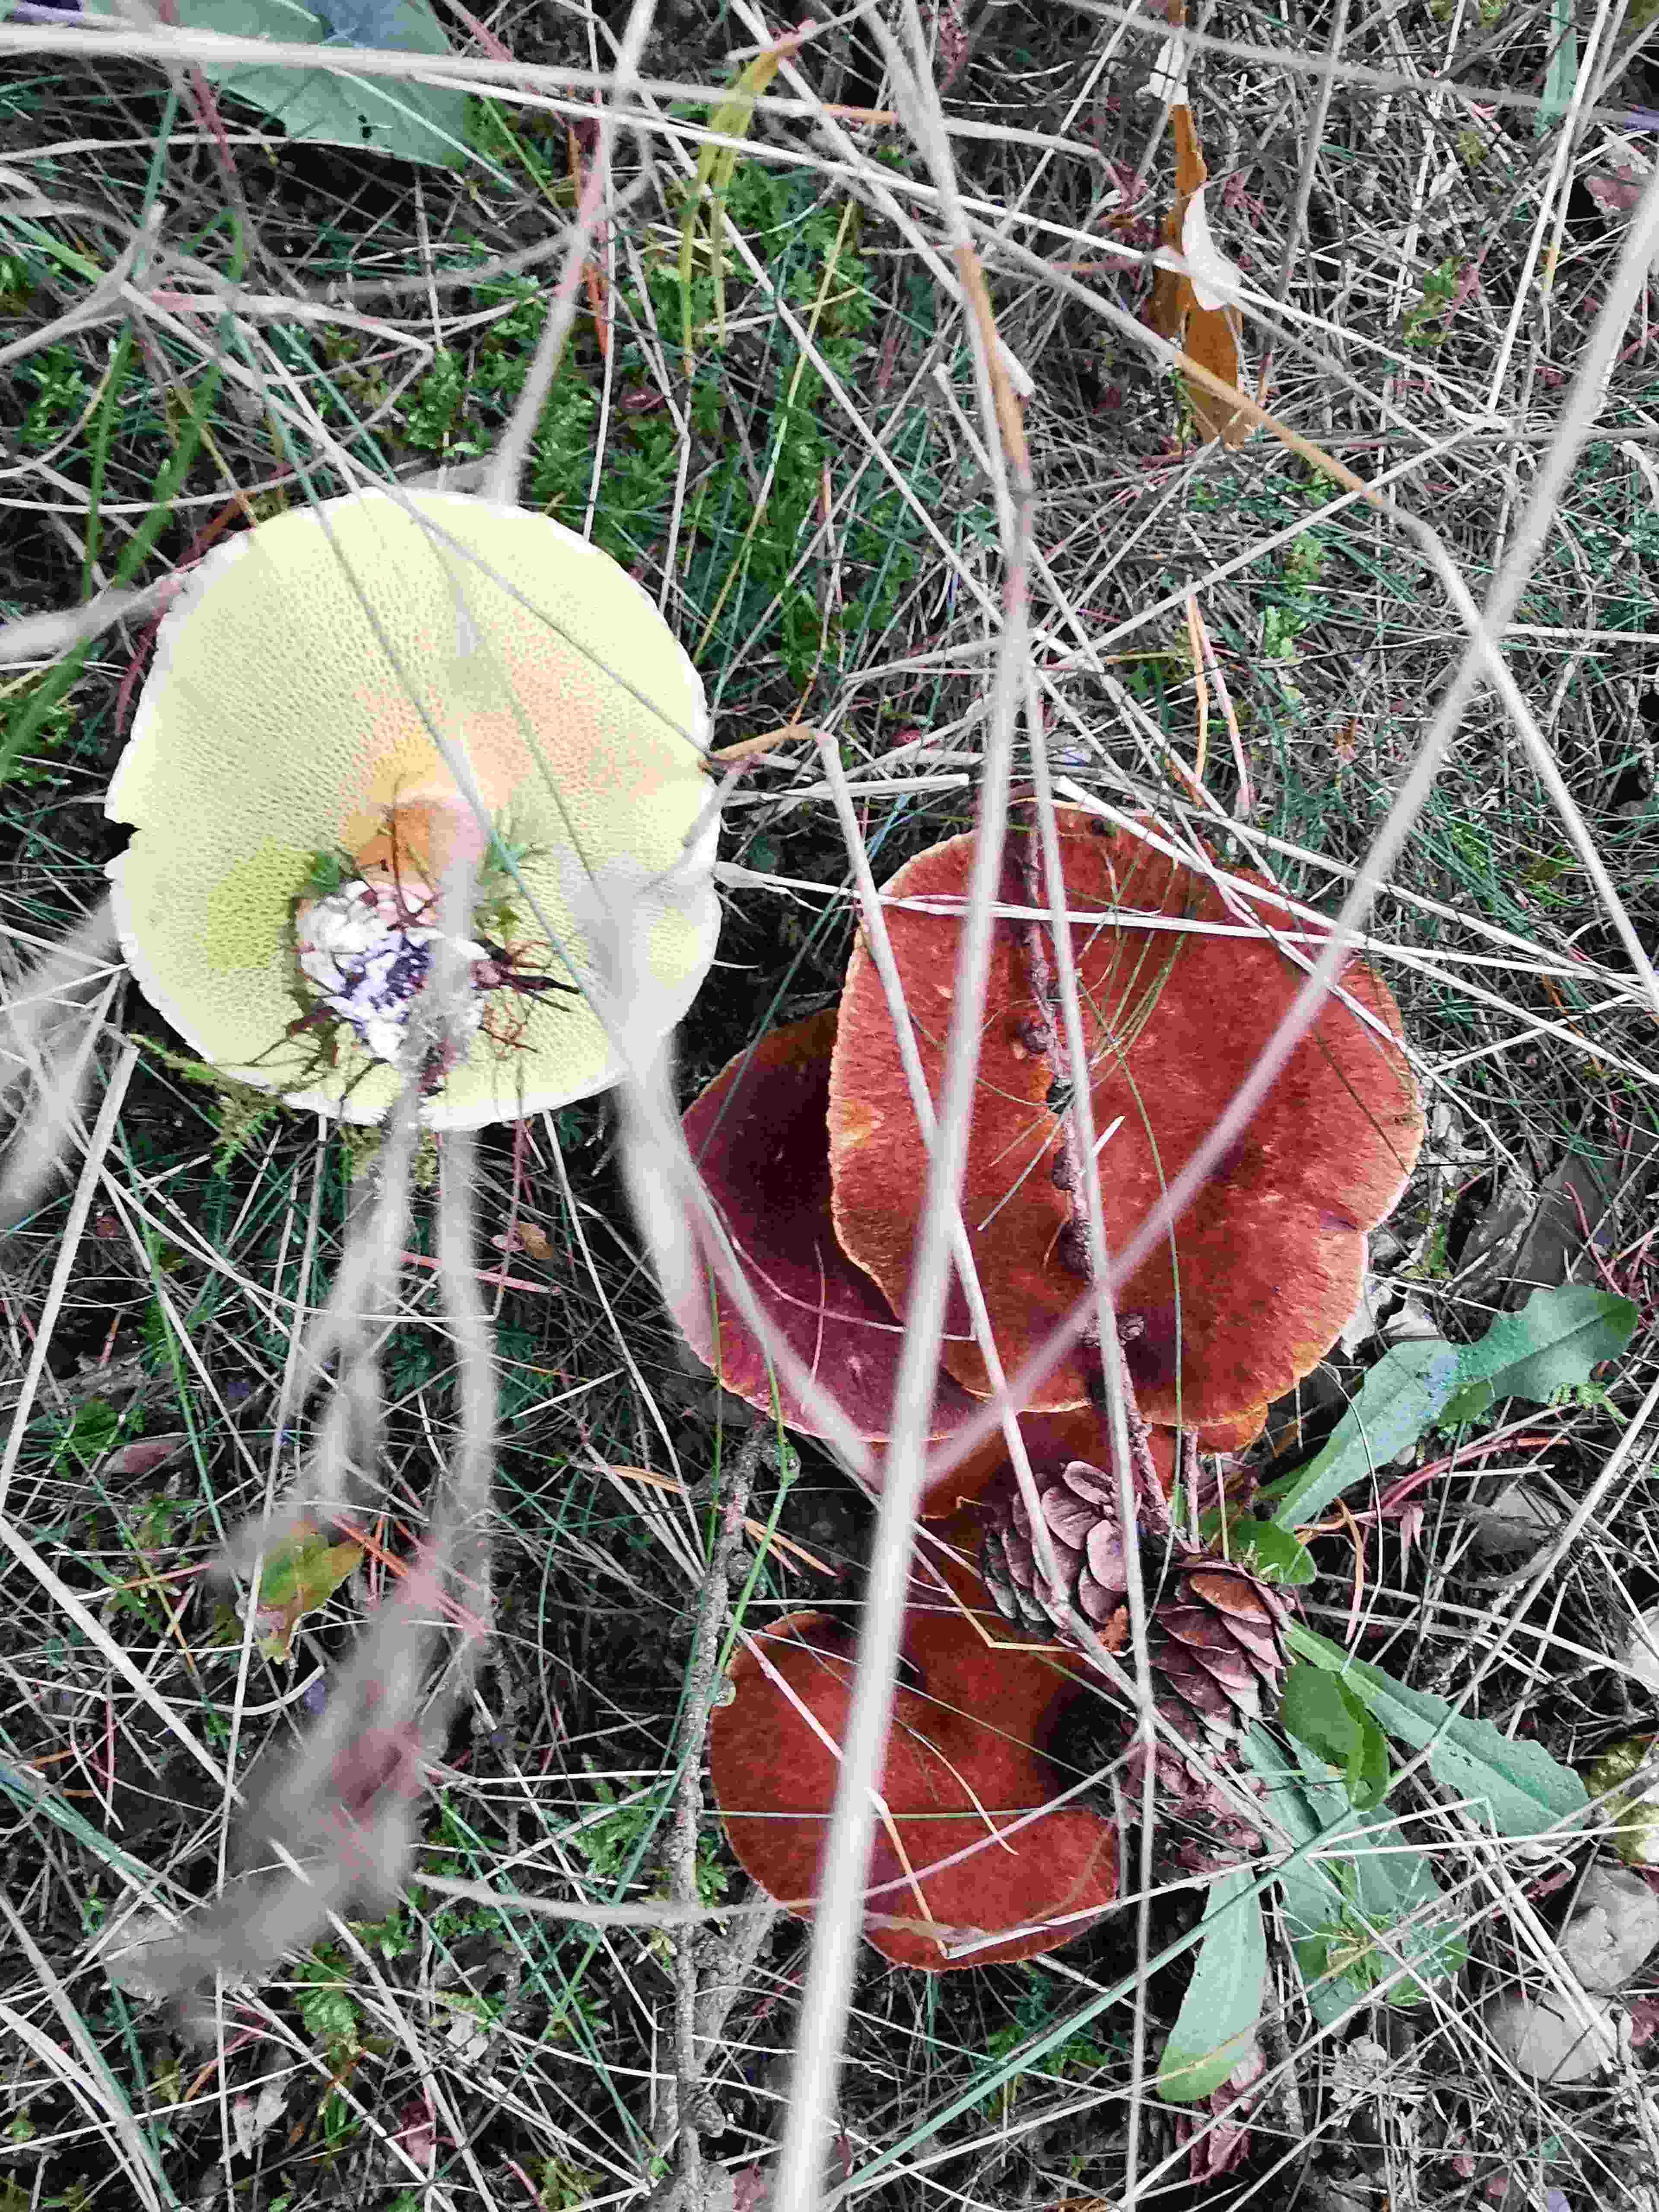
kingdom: Fungi
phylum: Basidiomycota
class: Agaricomycetes
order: Boletales
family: Suillaceae
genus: Suillus
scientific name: Suillus cavipes
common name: hulstokket slimrørhat
